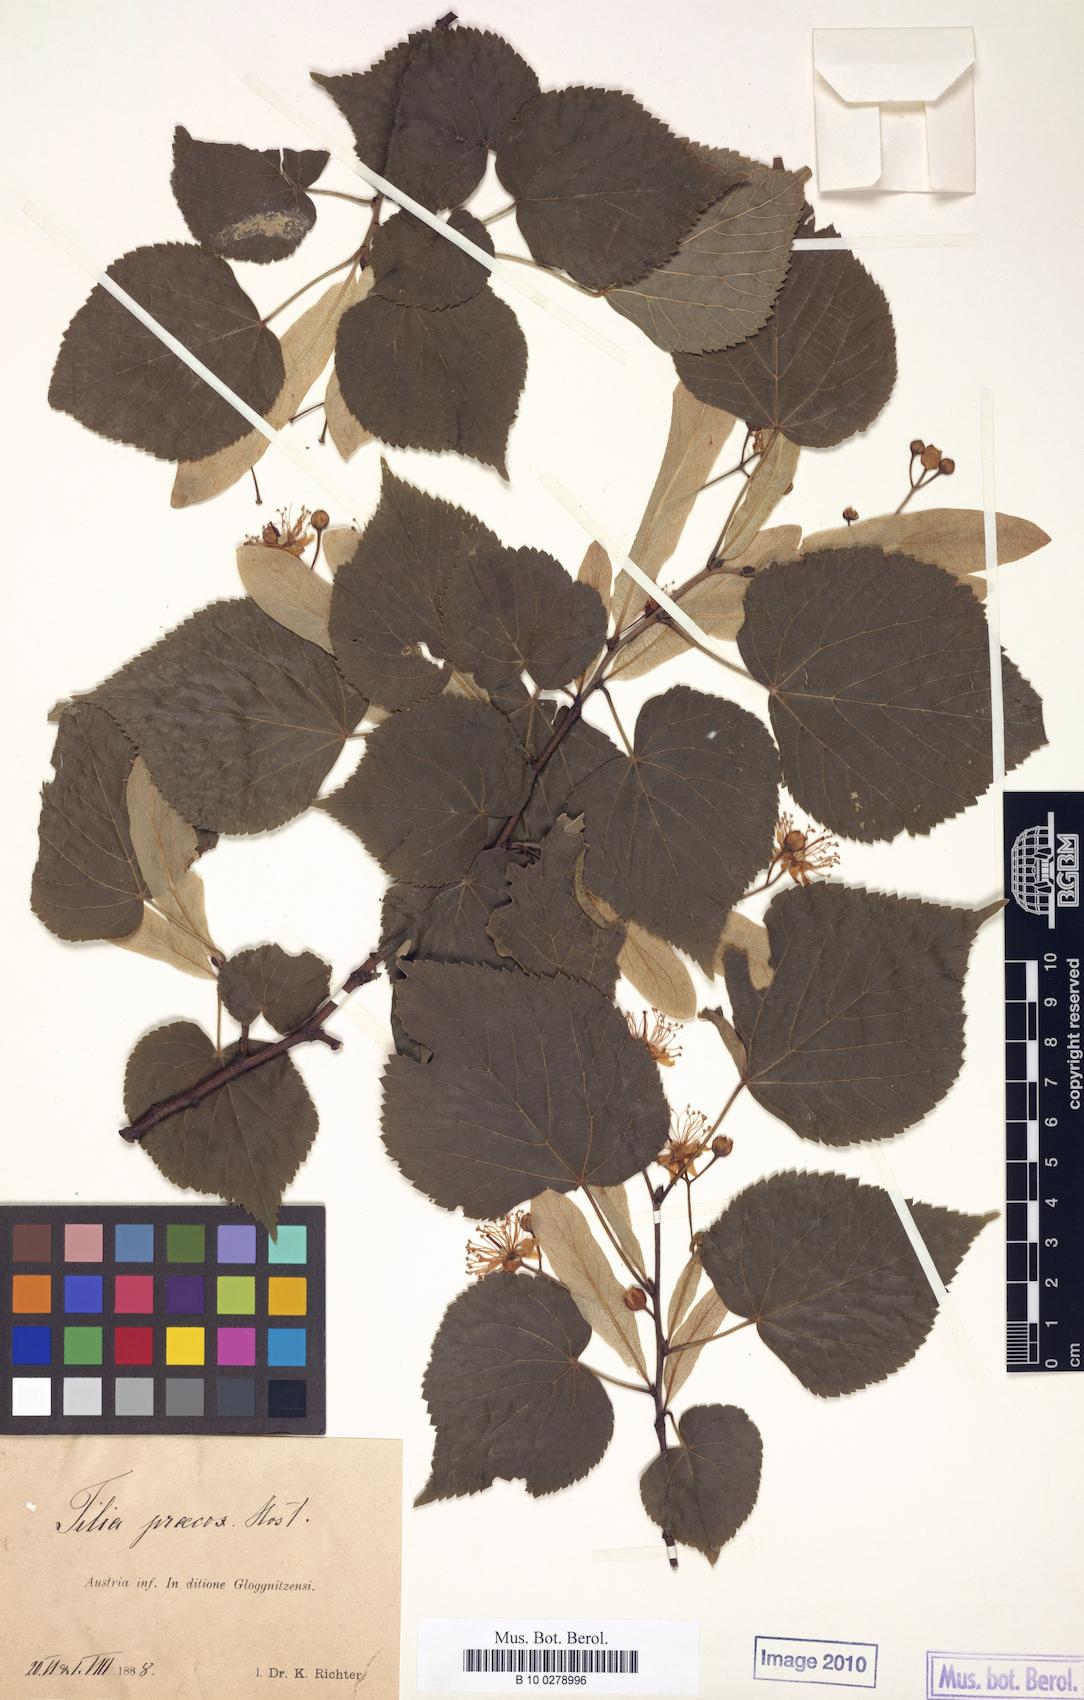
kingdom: Plantae
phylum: Tracheophyta
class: Magnoliopsida
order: Malvales
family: Malvaceae
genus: Tilia
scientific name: Tilia flaccida
